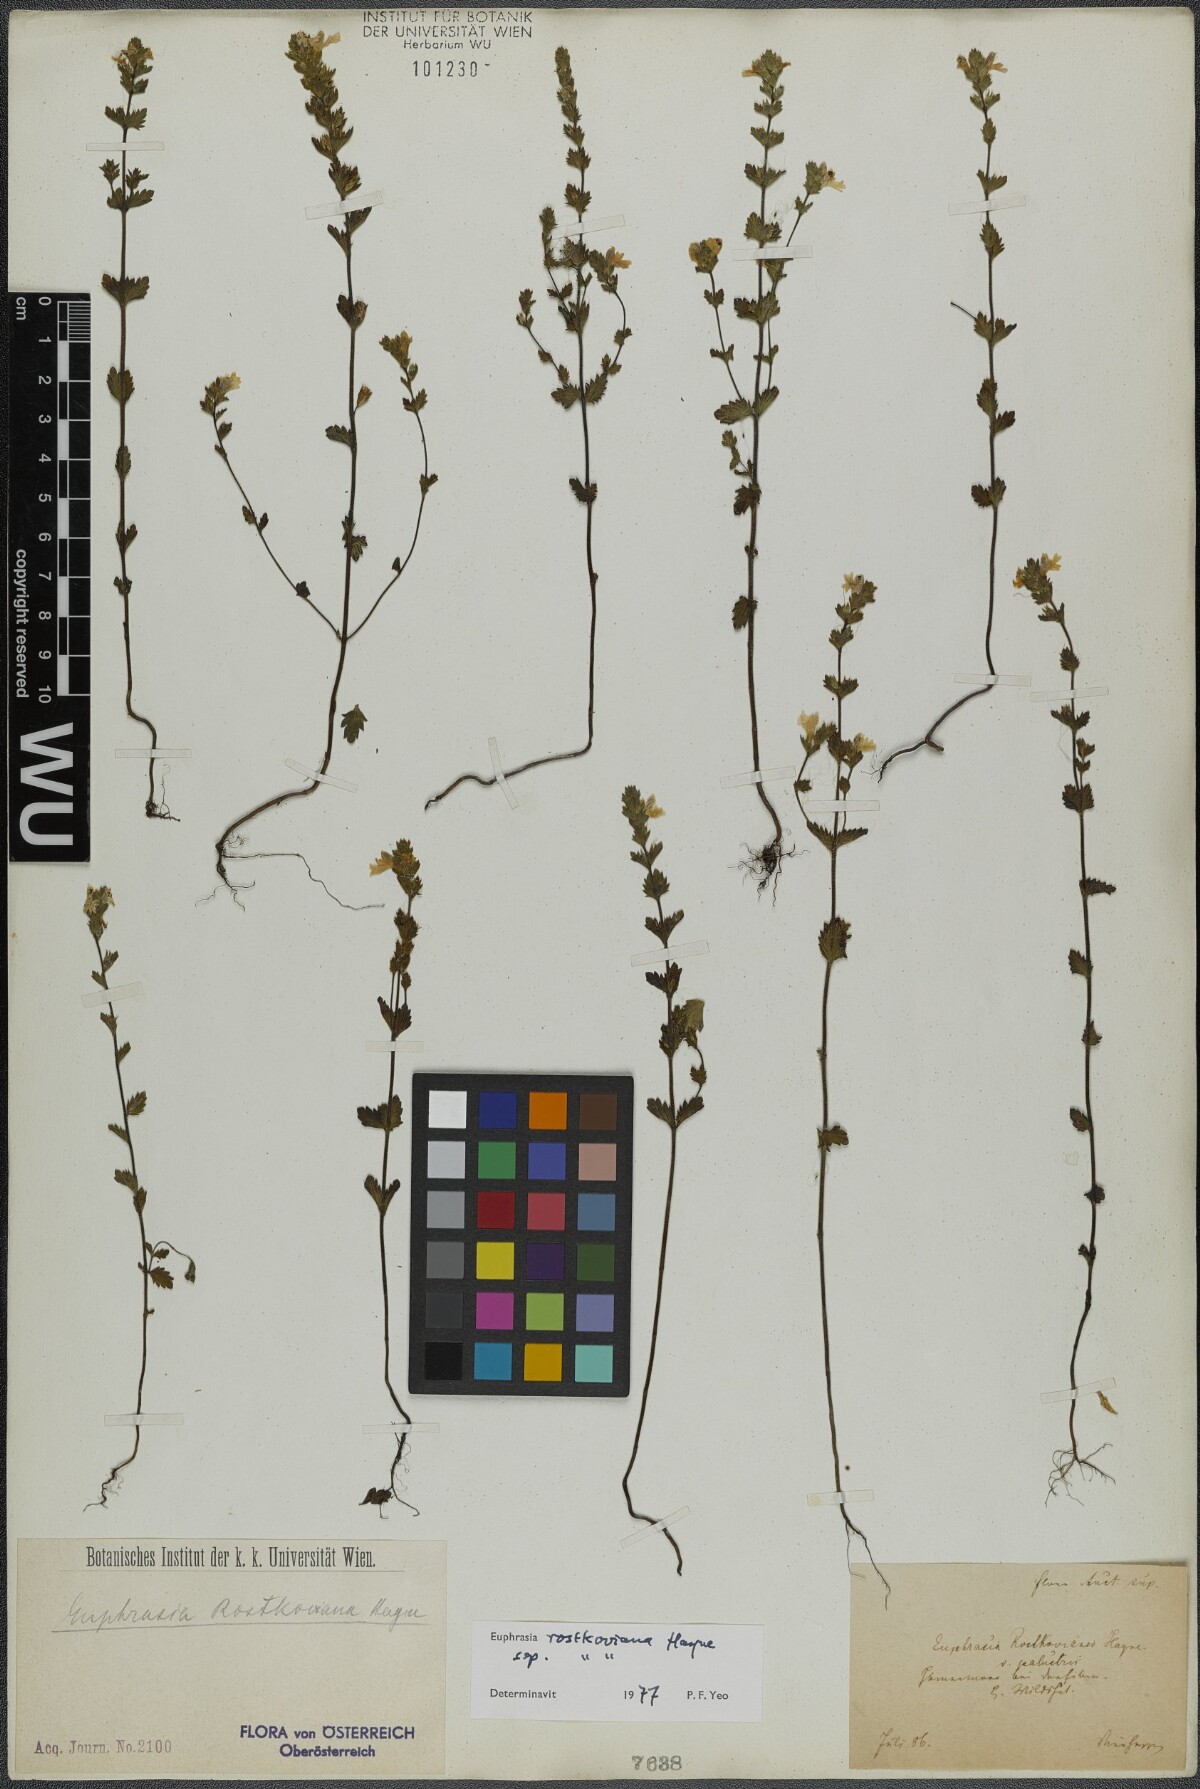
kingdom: Plantae
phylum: Tracheophyta
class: Magnoliopsida
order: Lamiales
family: Orobanchaceae
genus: Euphrasia
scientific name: Euphrasia officinalis
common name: Eyebright
